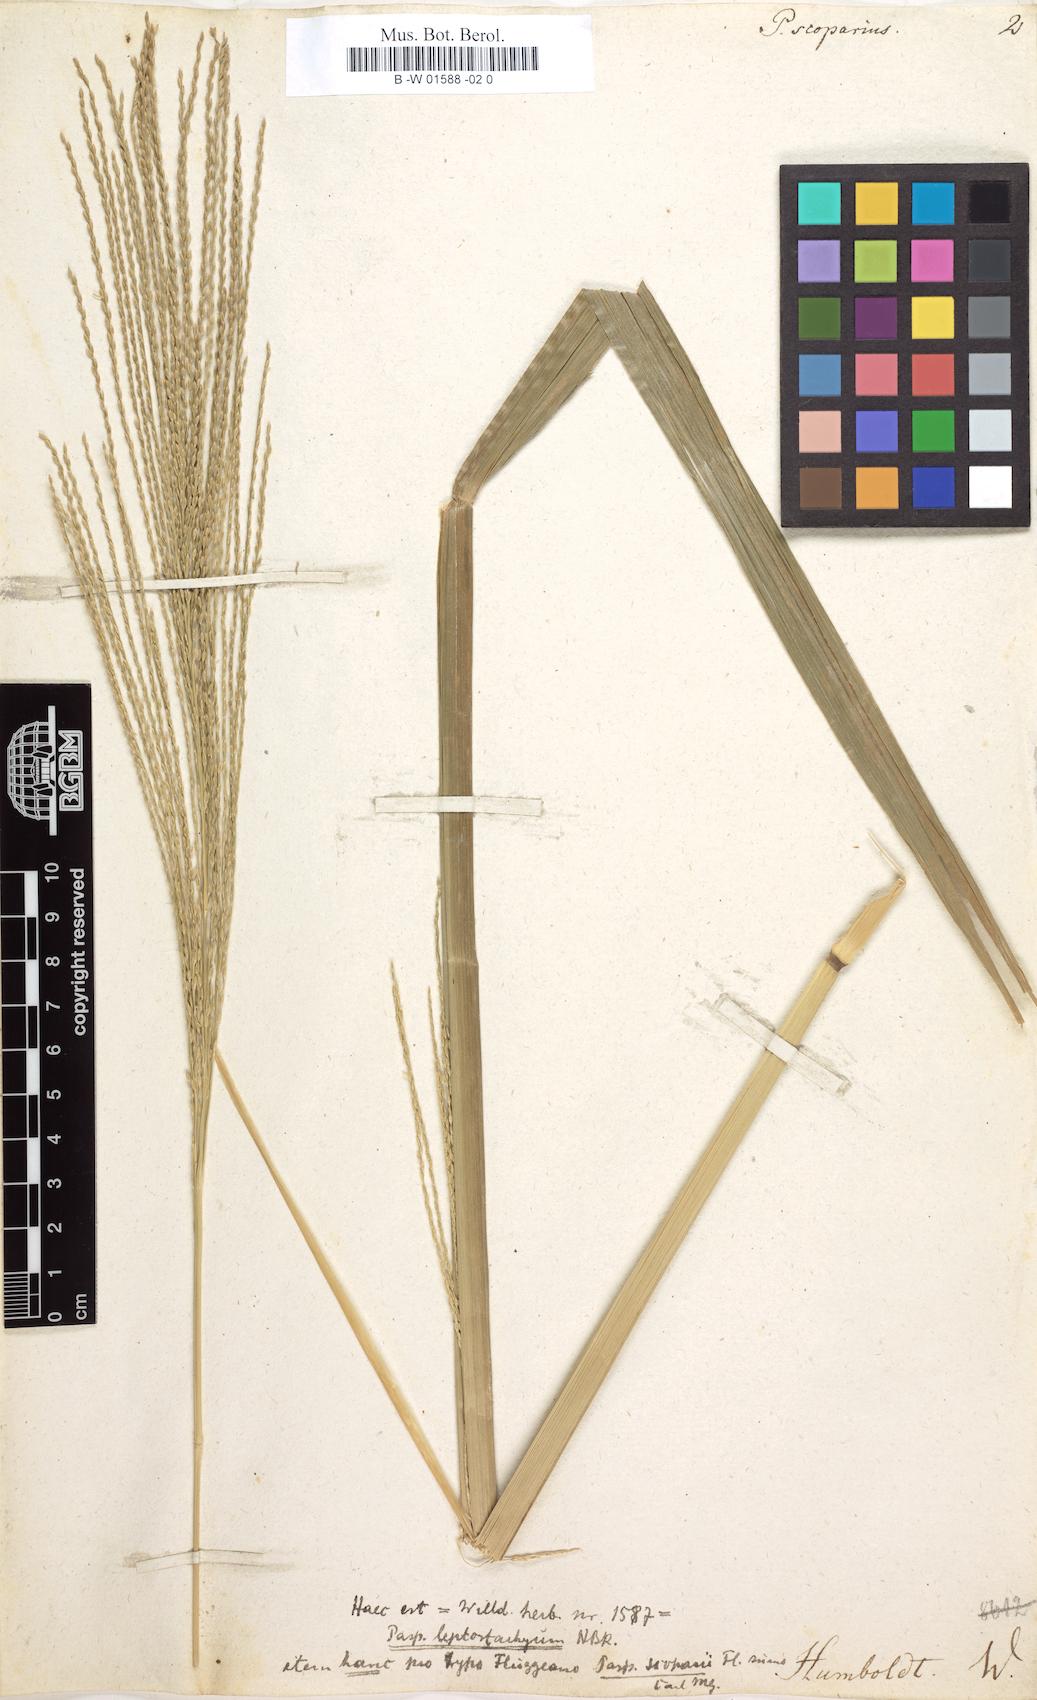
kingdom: Plantae
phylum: Tracheophyta
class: Liliopsida
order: Poales
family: Poaceae
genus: Axonopus
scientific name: Axonopus scoparius
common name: Imperial grass
